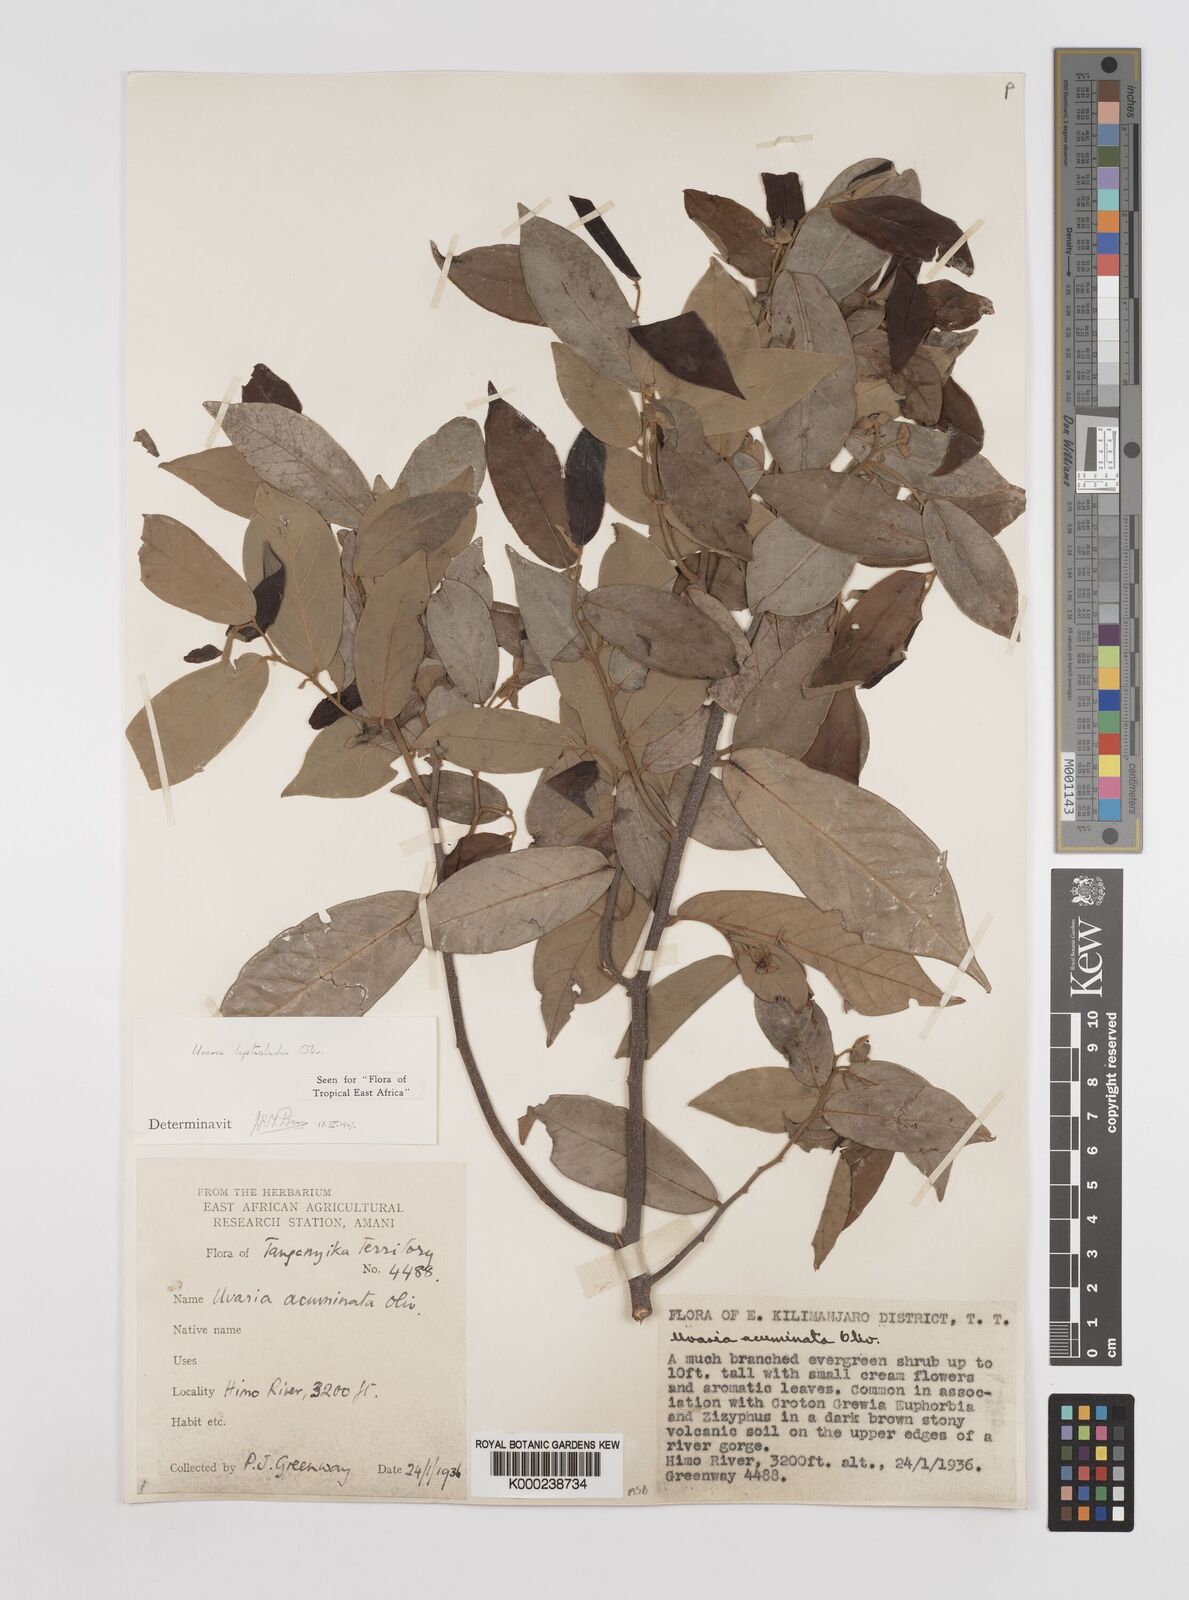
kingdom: Plantae
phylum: Tracheophyta
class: Magnoliopsida
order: Magnoliales
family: Annonaceae
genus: Uvaria
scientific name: Uvaria leptocladon
